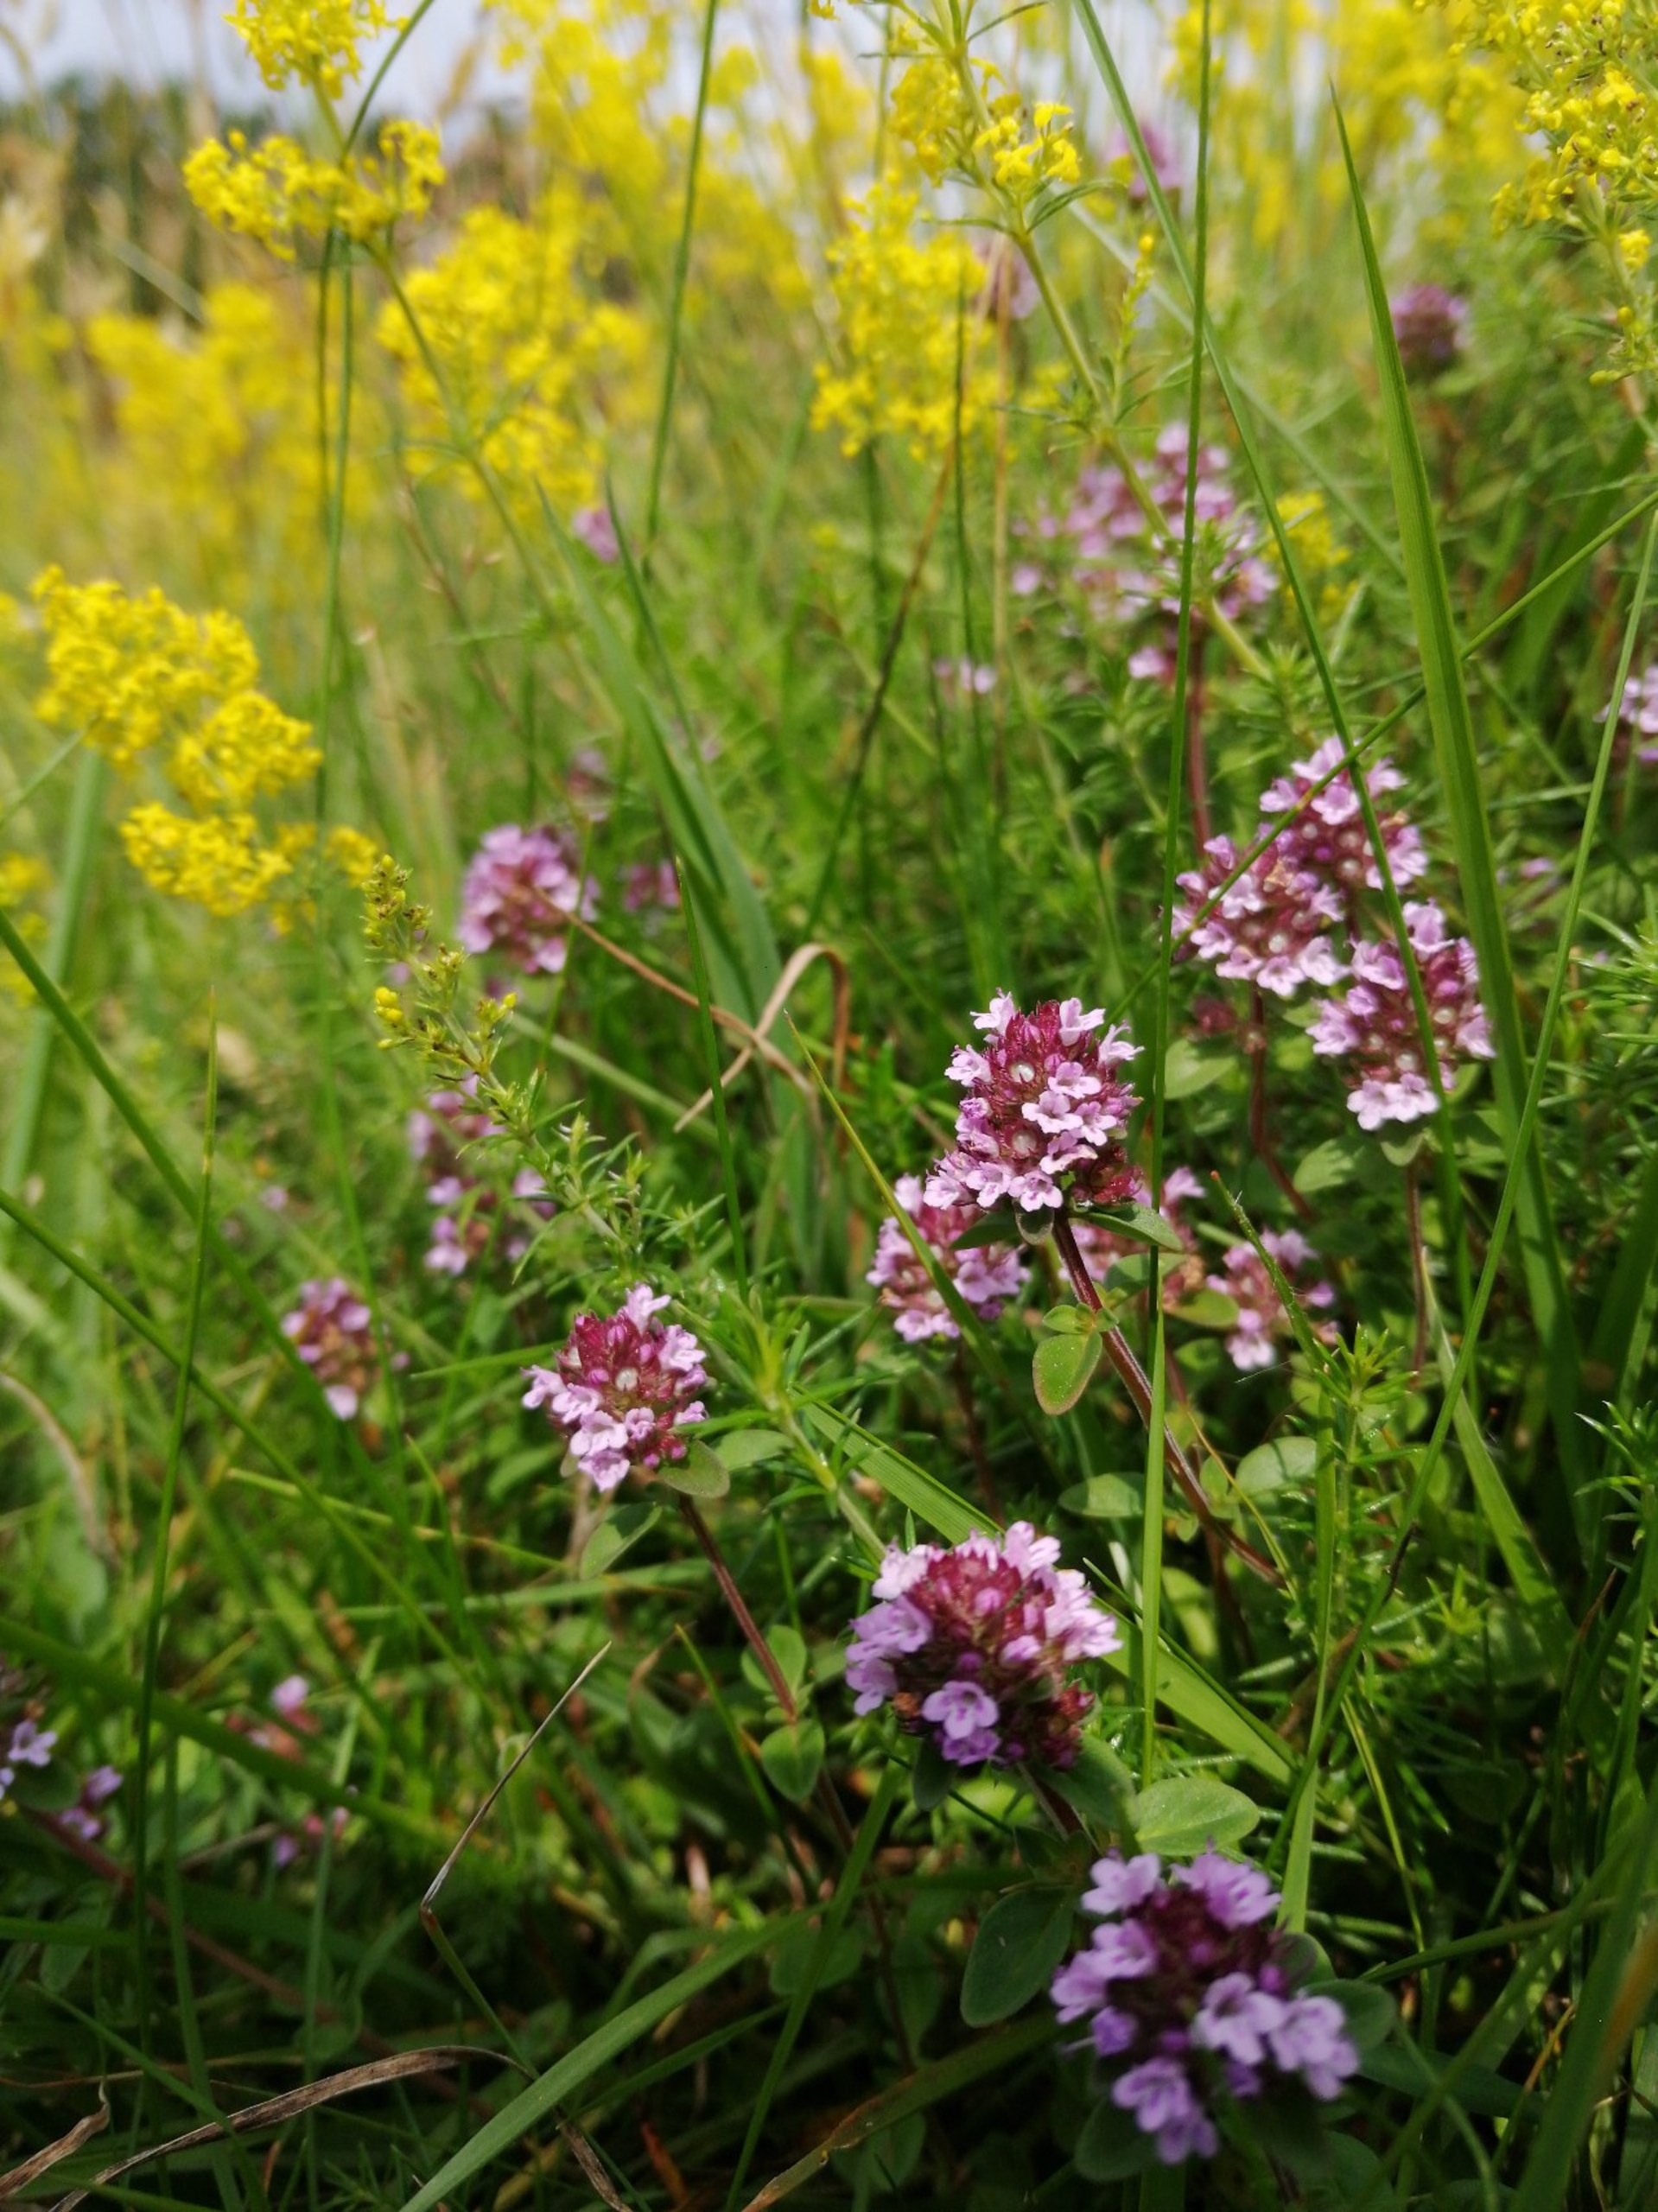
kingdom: Plantae
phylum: Tracheophyta
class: Magnoliopsida
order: Lamiales
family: Lamiaceae
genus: Thymus
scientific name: Thymus pulegioides
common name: Bredbladet timian
